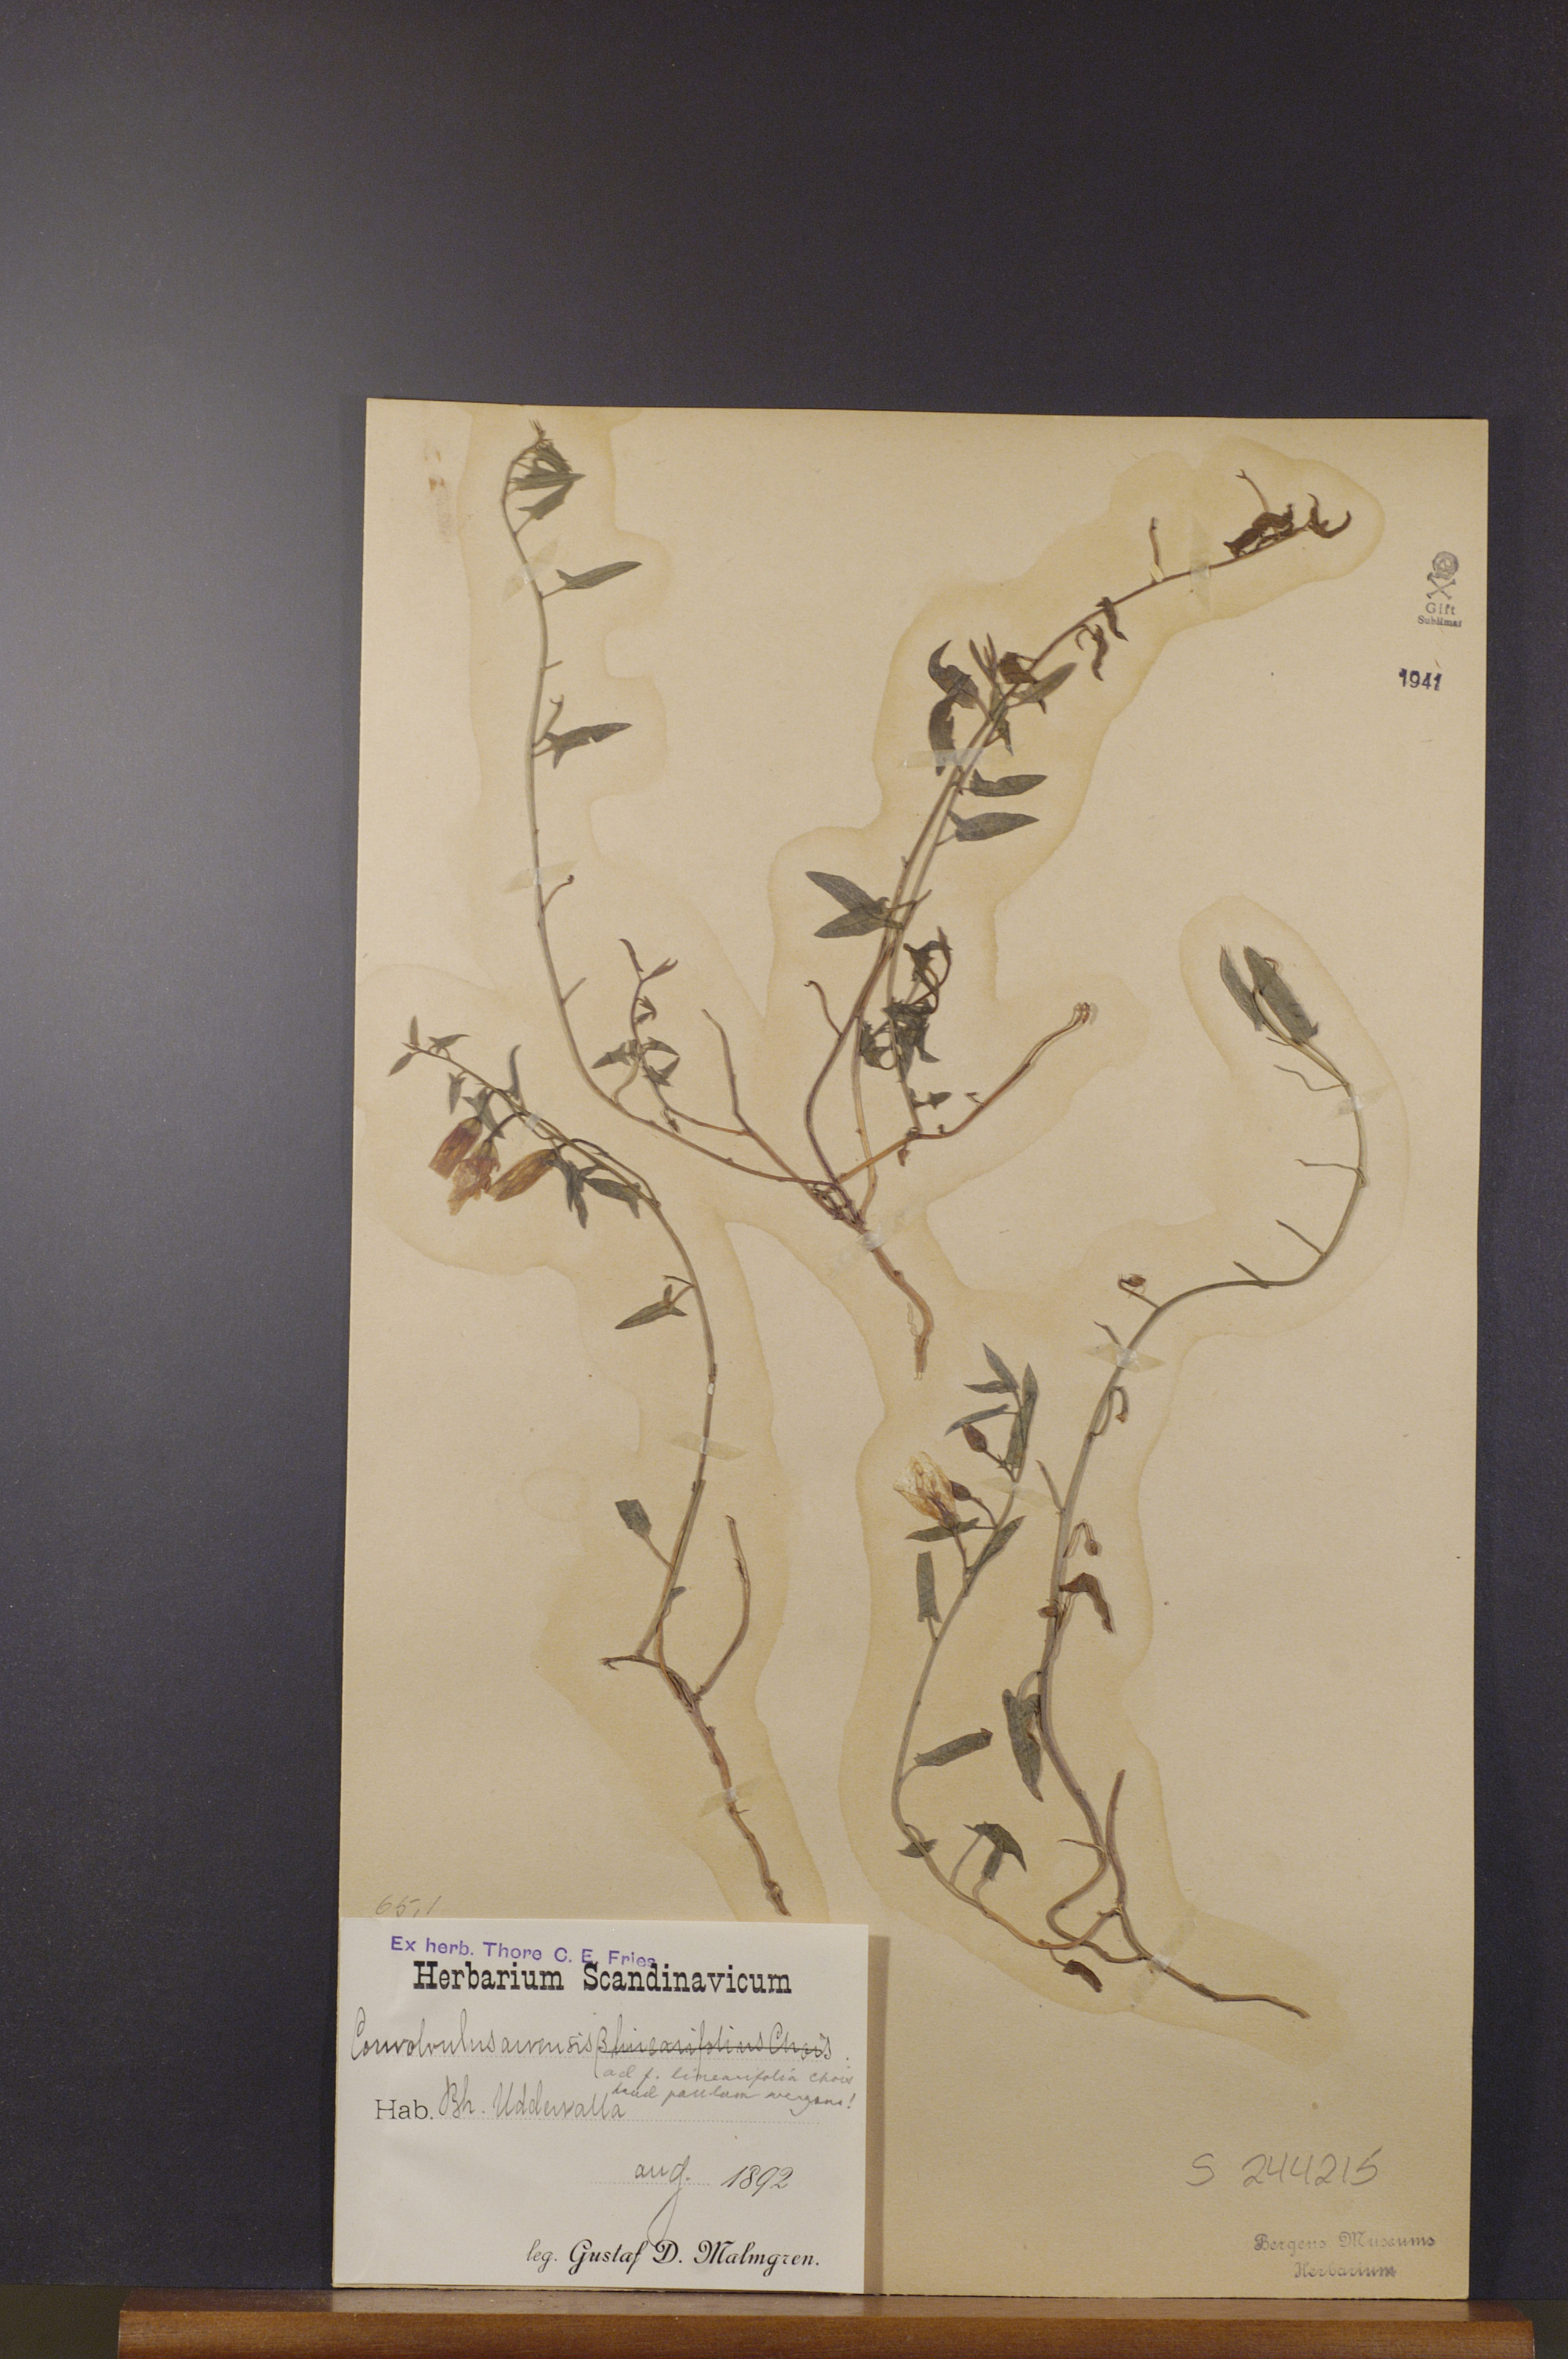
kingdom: Plantae
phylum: Tracheophyta
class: Magnoliopsida
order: Solanales
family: Convolvulaceae
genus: Convolvulus
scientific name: Convolvulus arvensis
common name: Field bindweed
